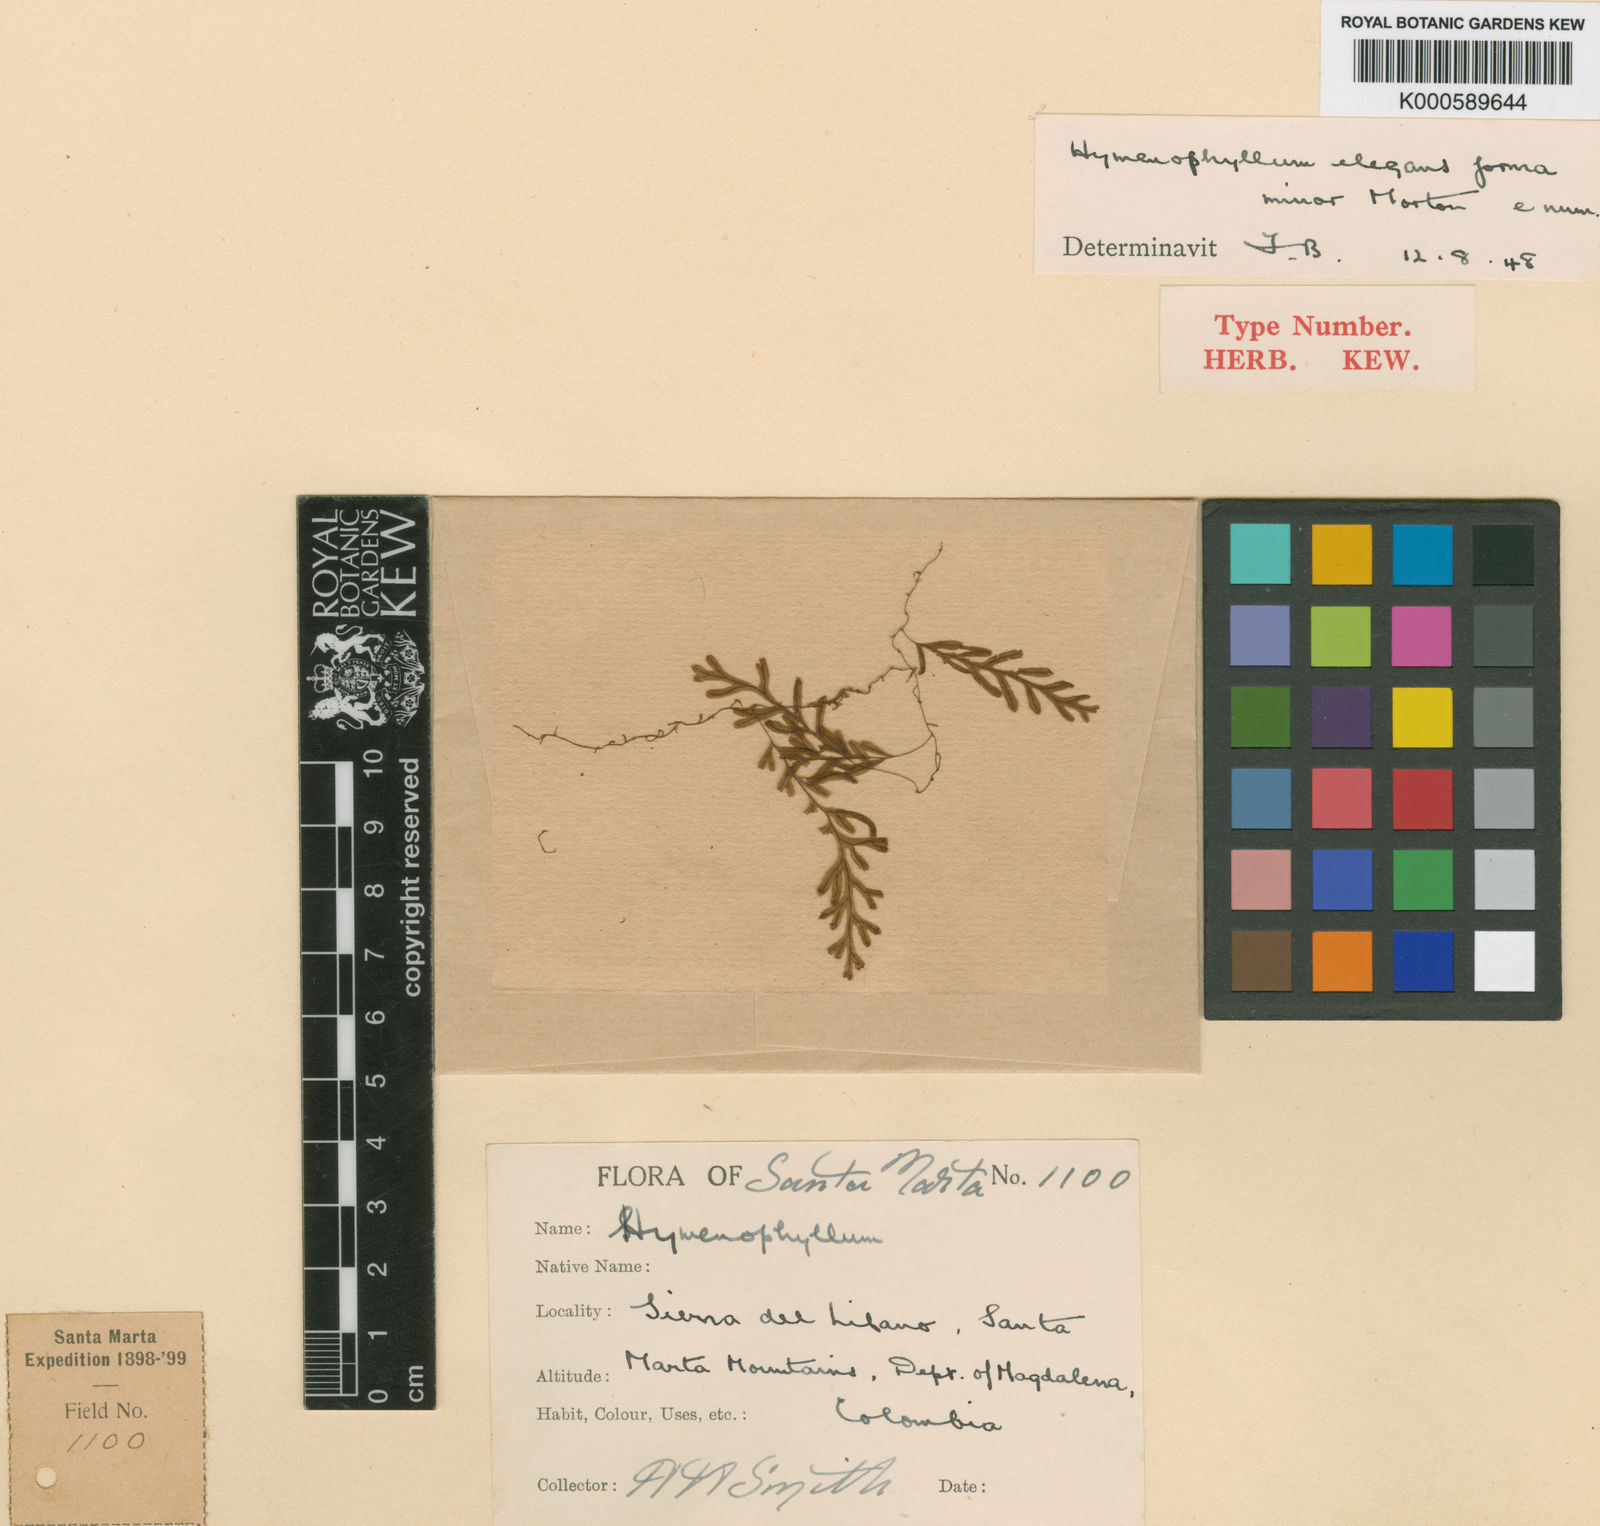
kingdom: Plantae
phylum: Tracheophyta
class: Polypodiopsida
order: Hymenophyllales
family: Hymenophyllaceae
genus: Hymenophyllum
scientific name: Hymenophyllum elegans
